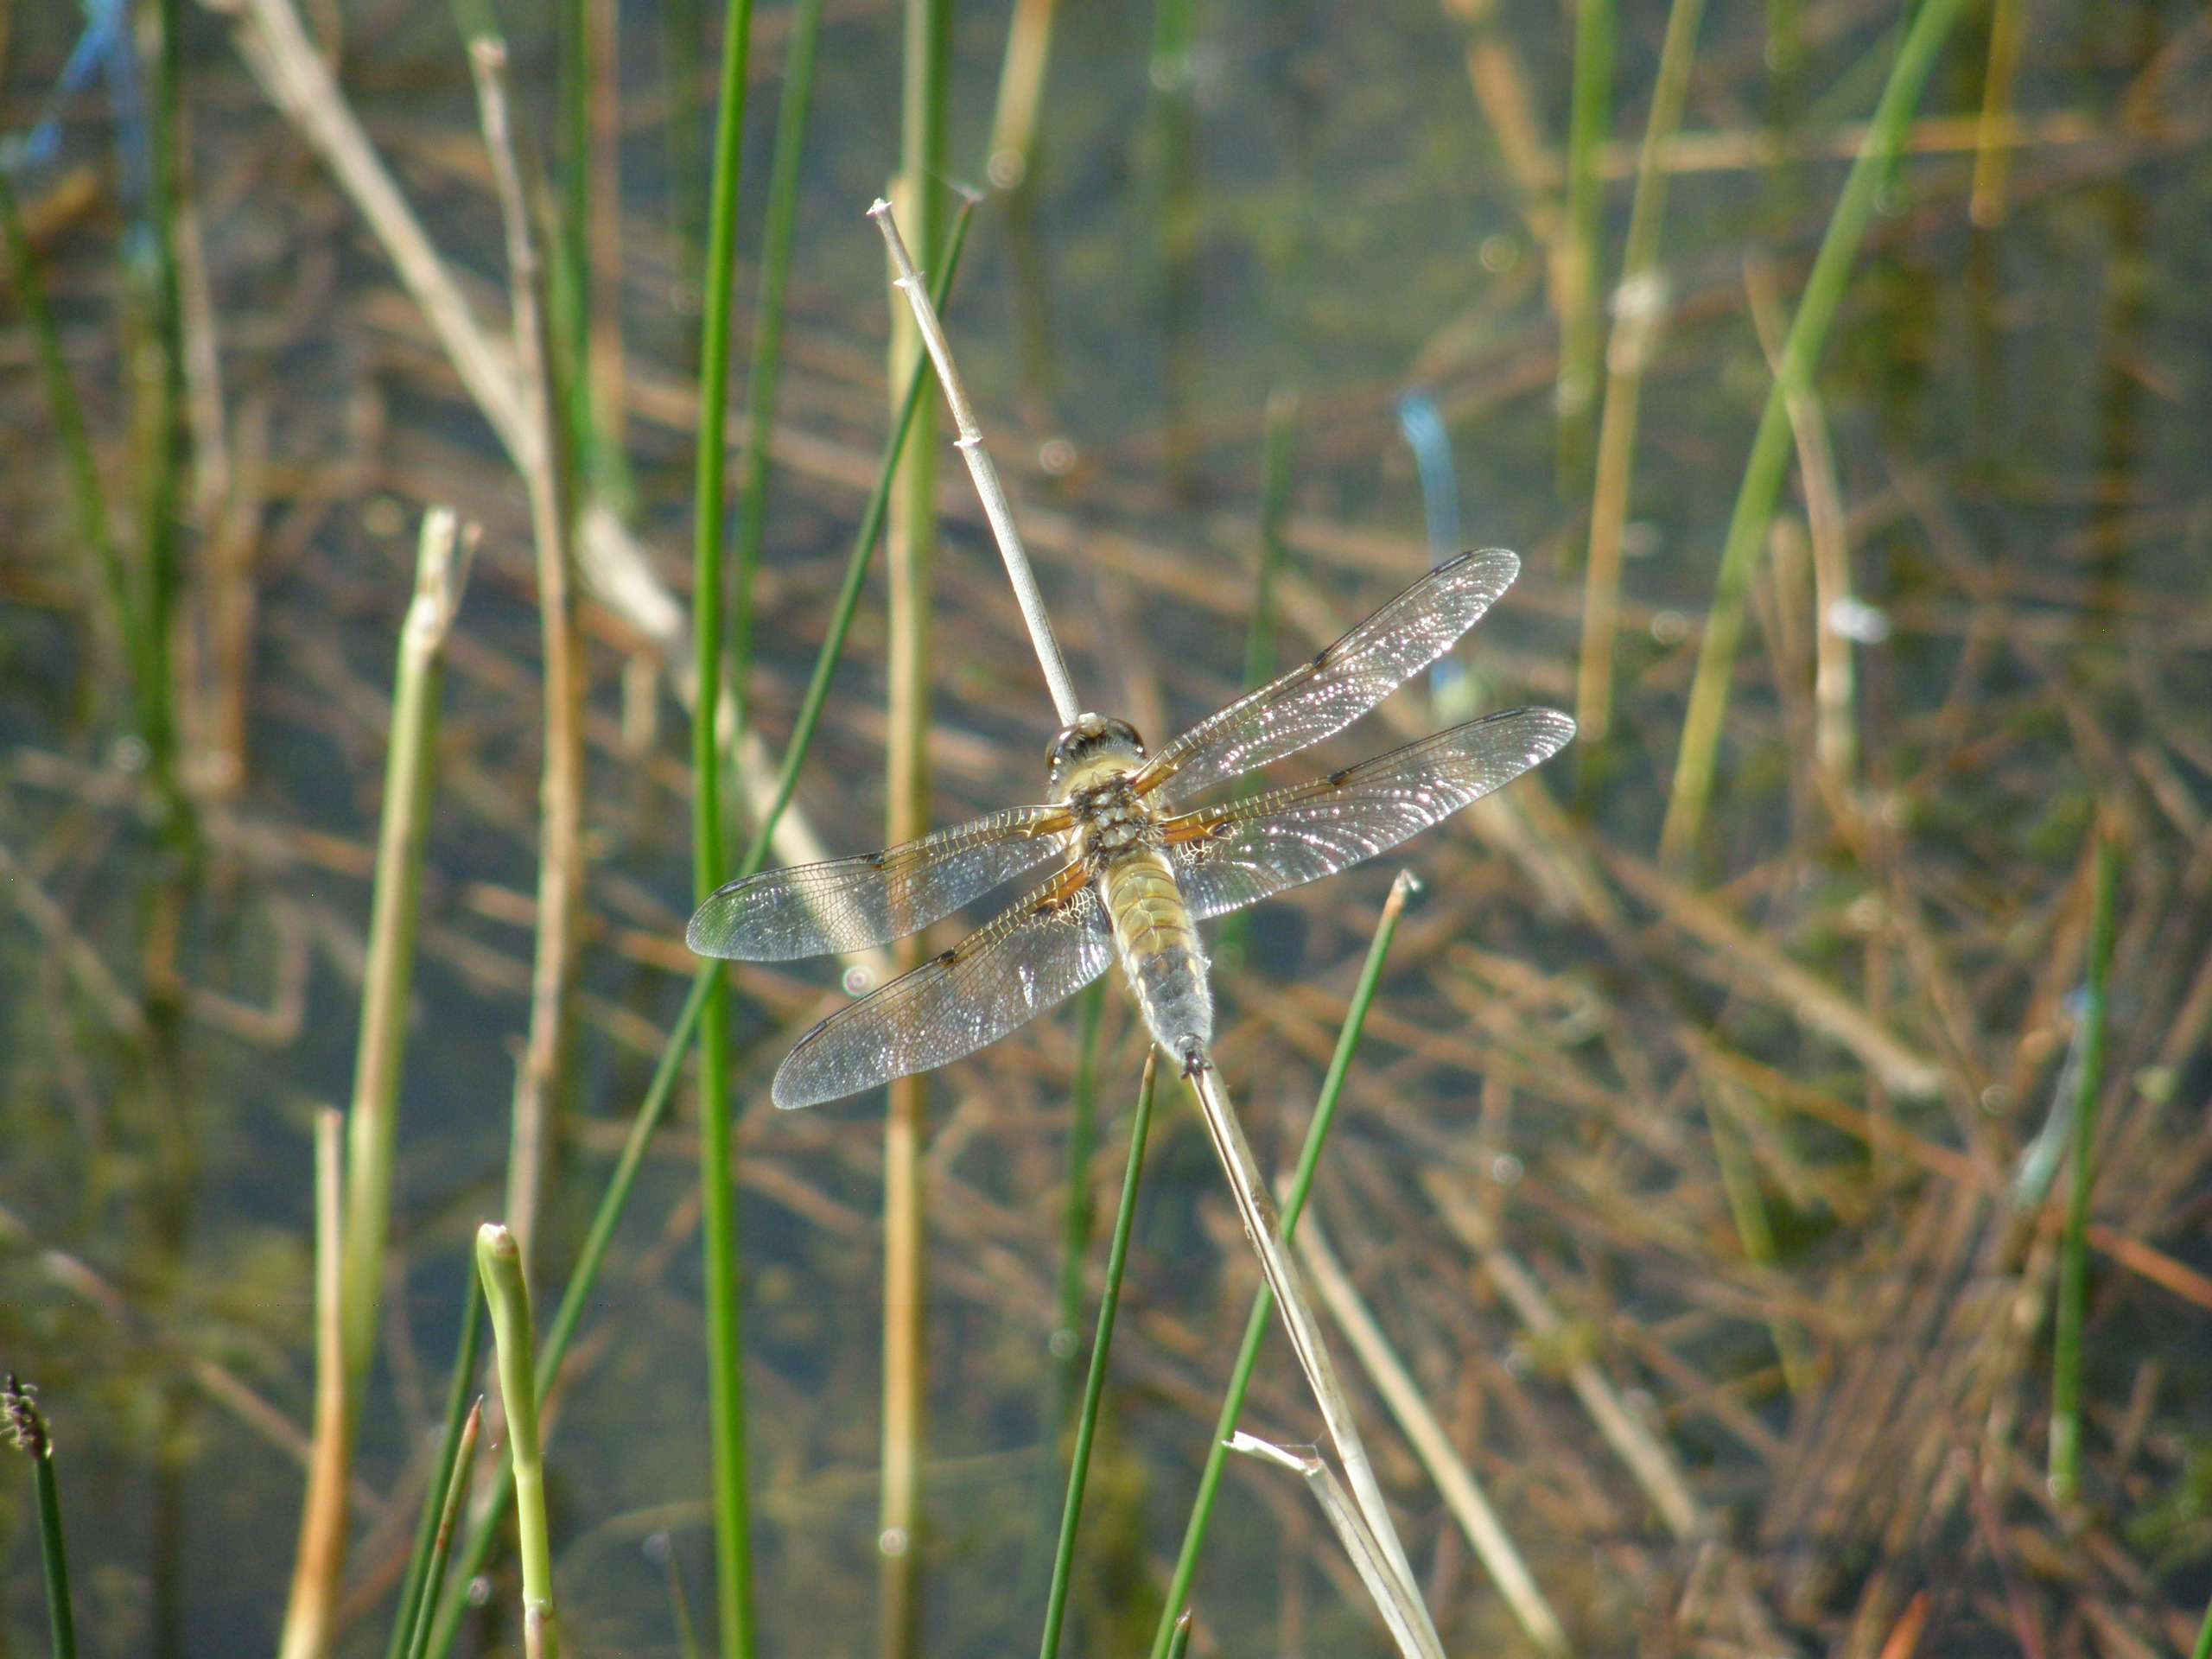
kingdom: Animalia
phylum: Arthropoda
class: Insecta
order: Odonata
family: Libellulidae
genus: Libellula
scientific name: Libellula quadrimaculata
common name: Fireplettet libel
